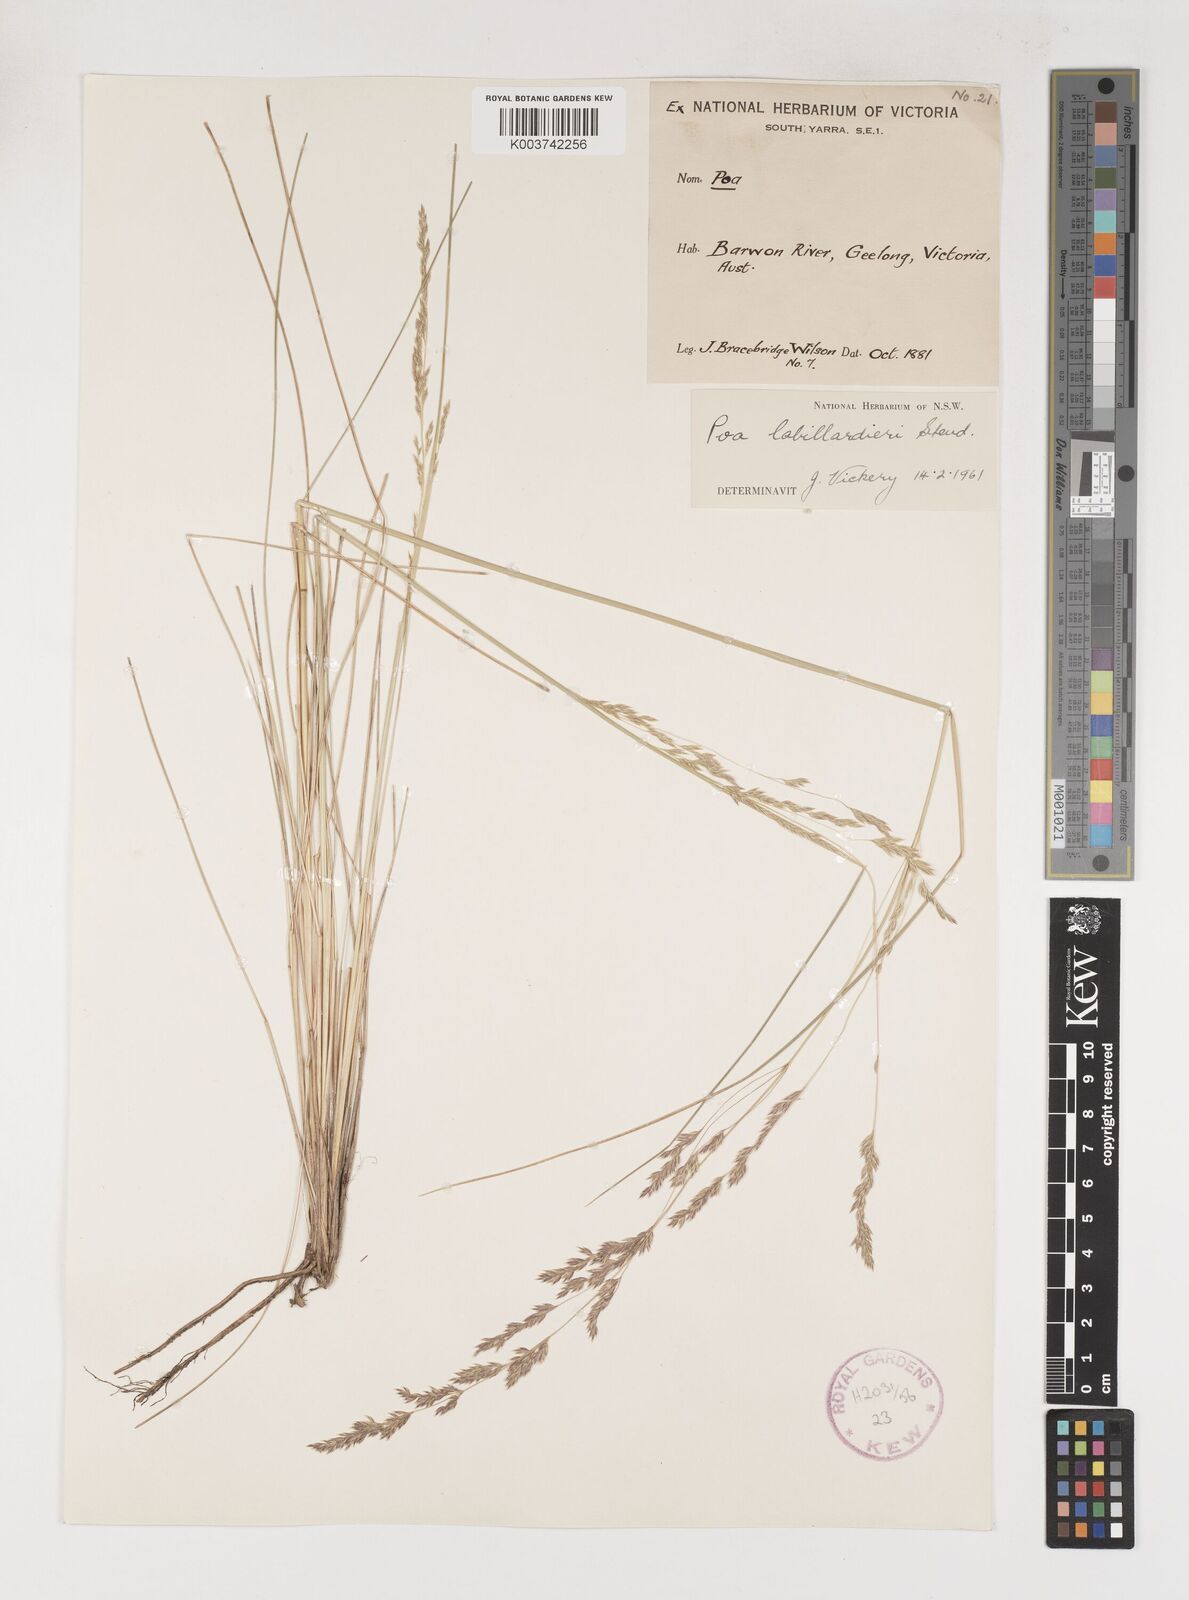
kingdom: Plantae
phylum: Tracheophyta
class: Liliopsida
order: Poales
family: Poaceae
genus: Poa
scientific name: Poa labillardierei
